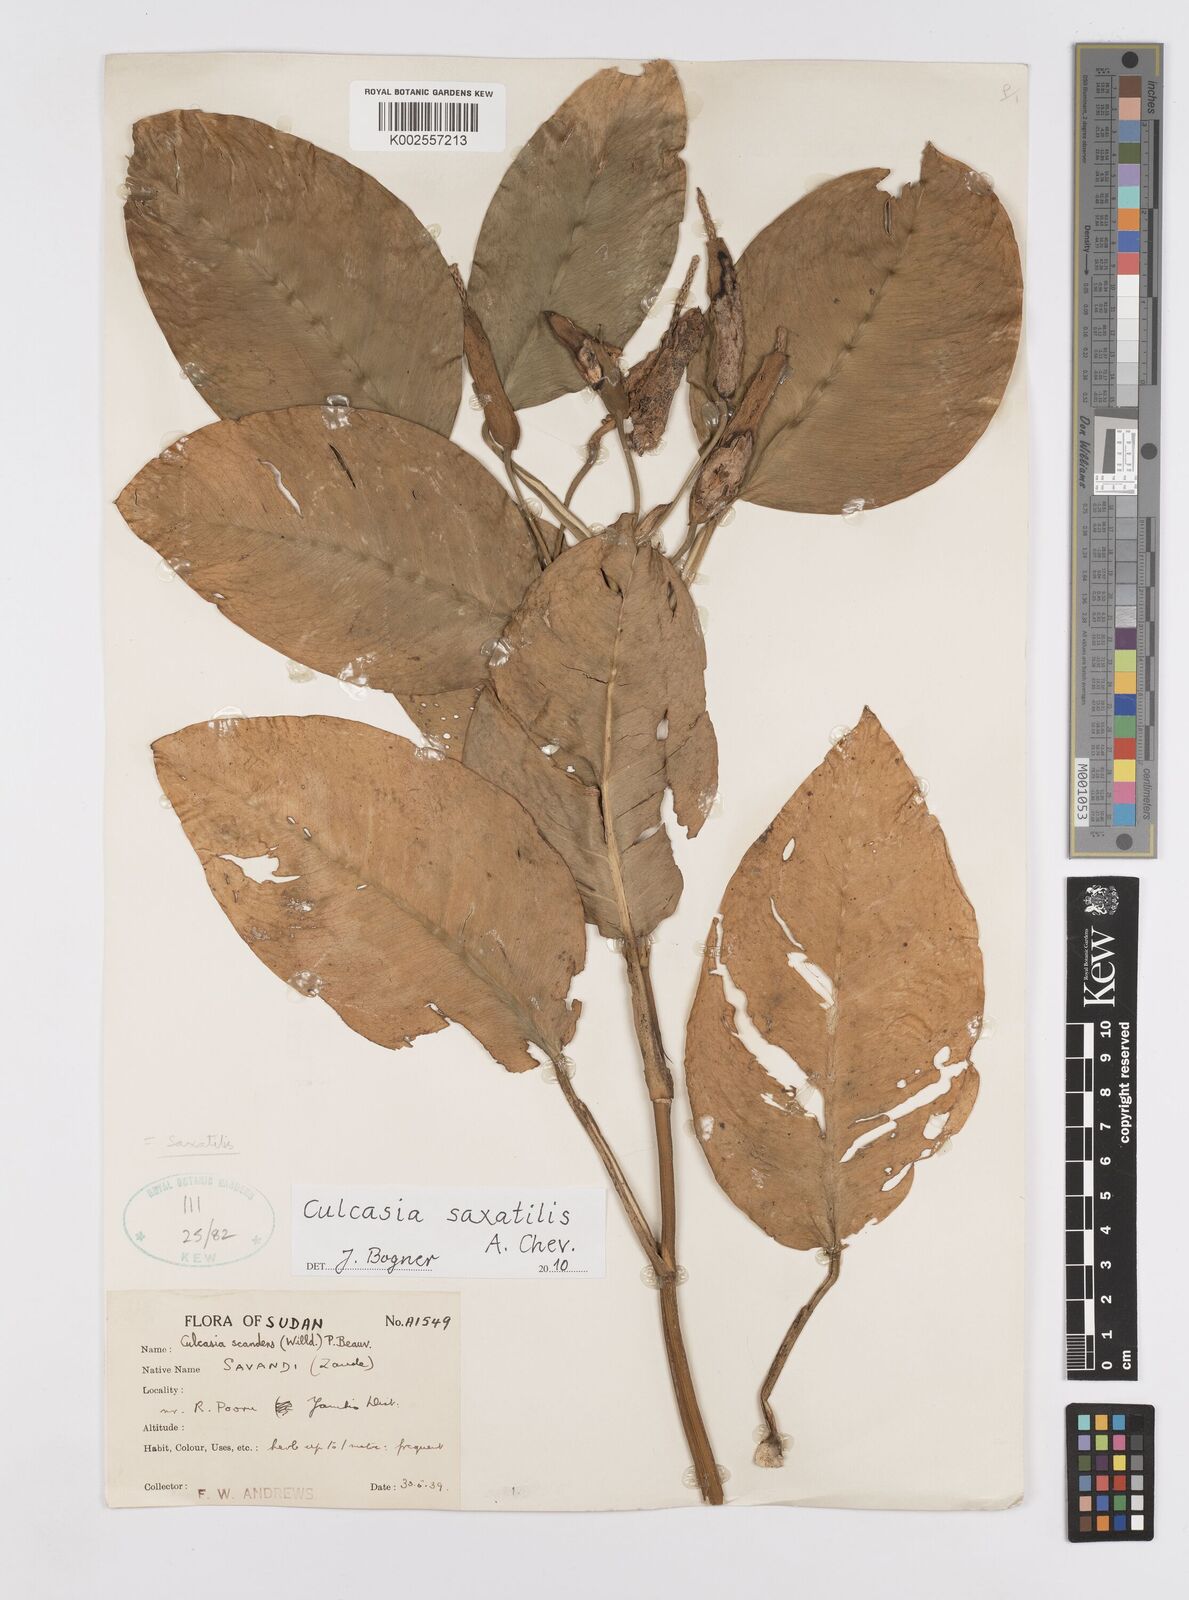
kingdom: Plantae
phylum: Tracheophyta
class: Liliopsida
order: Alismatales
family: Araceae
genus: Culcasia
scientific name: Culcasia scandens
